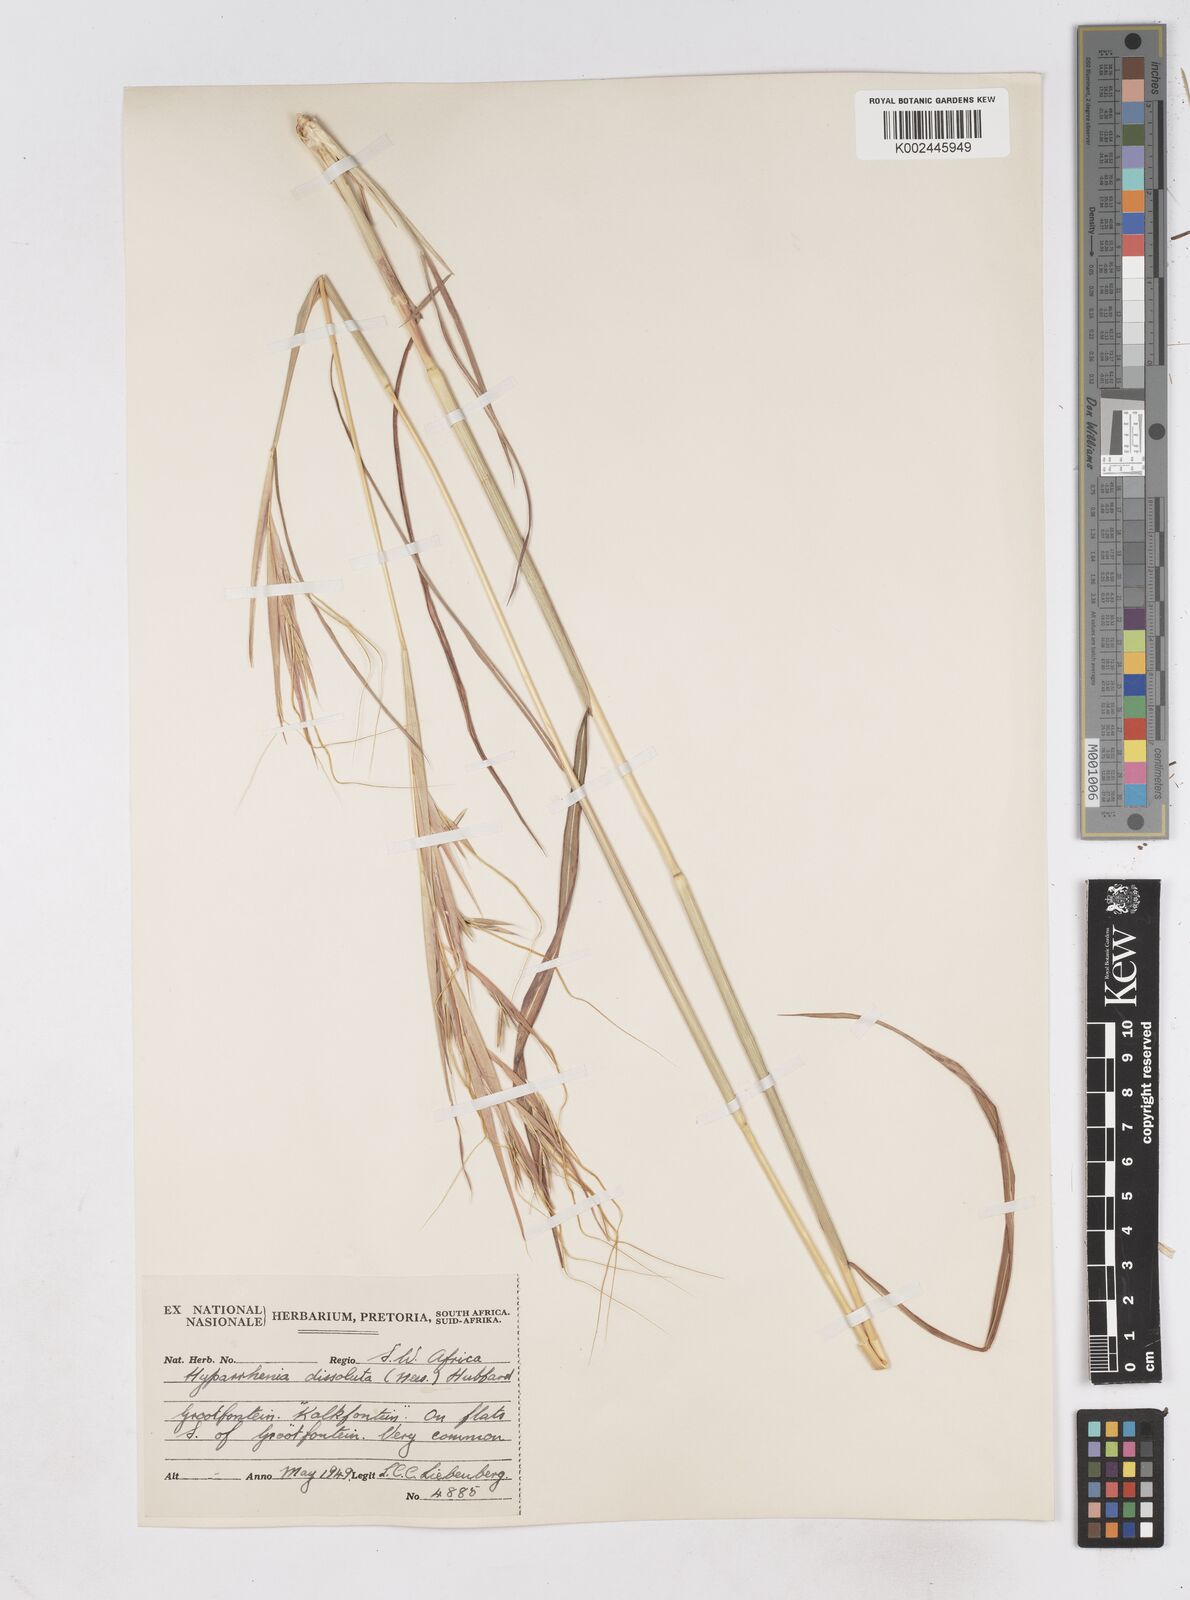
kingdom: Plantae
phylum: Tracheophyta
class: Liliopsida
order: Poales
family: Poaceae
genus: Hyperthelia
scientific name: Hyperthelia dissoluta
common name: Yellow thatching grass
